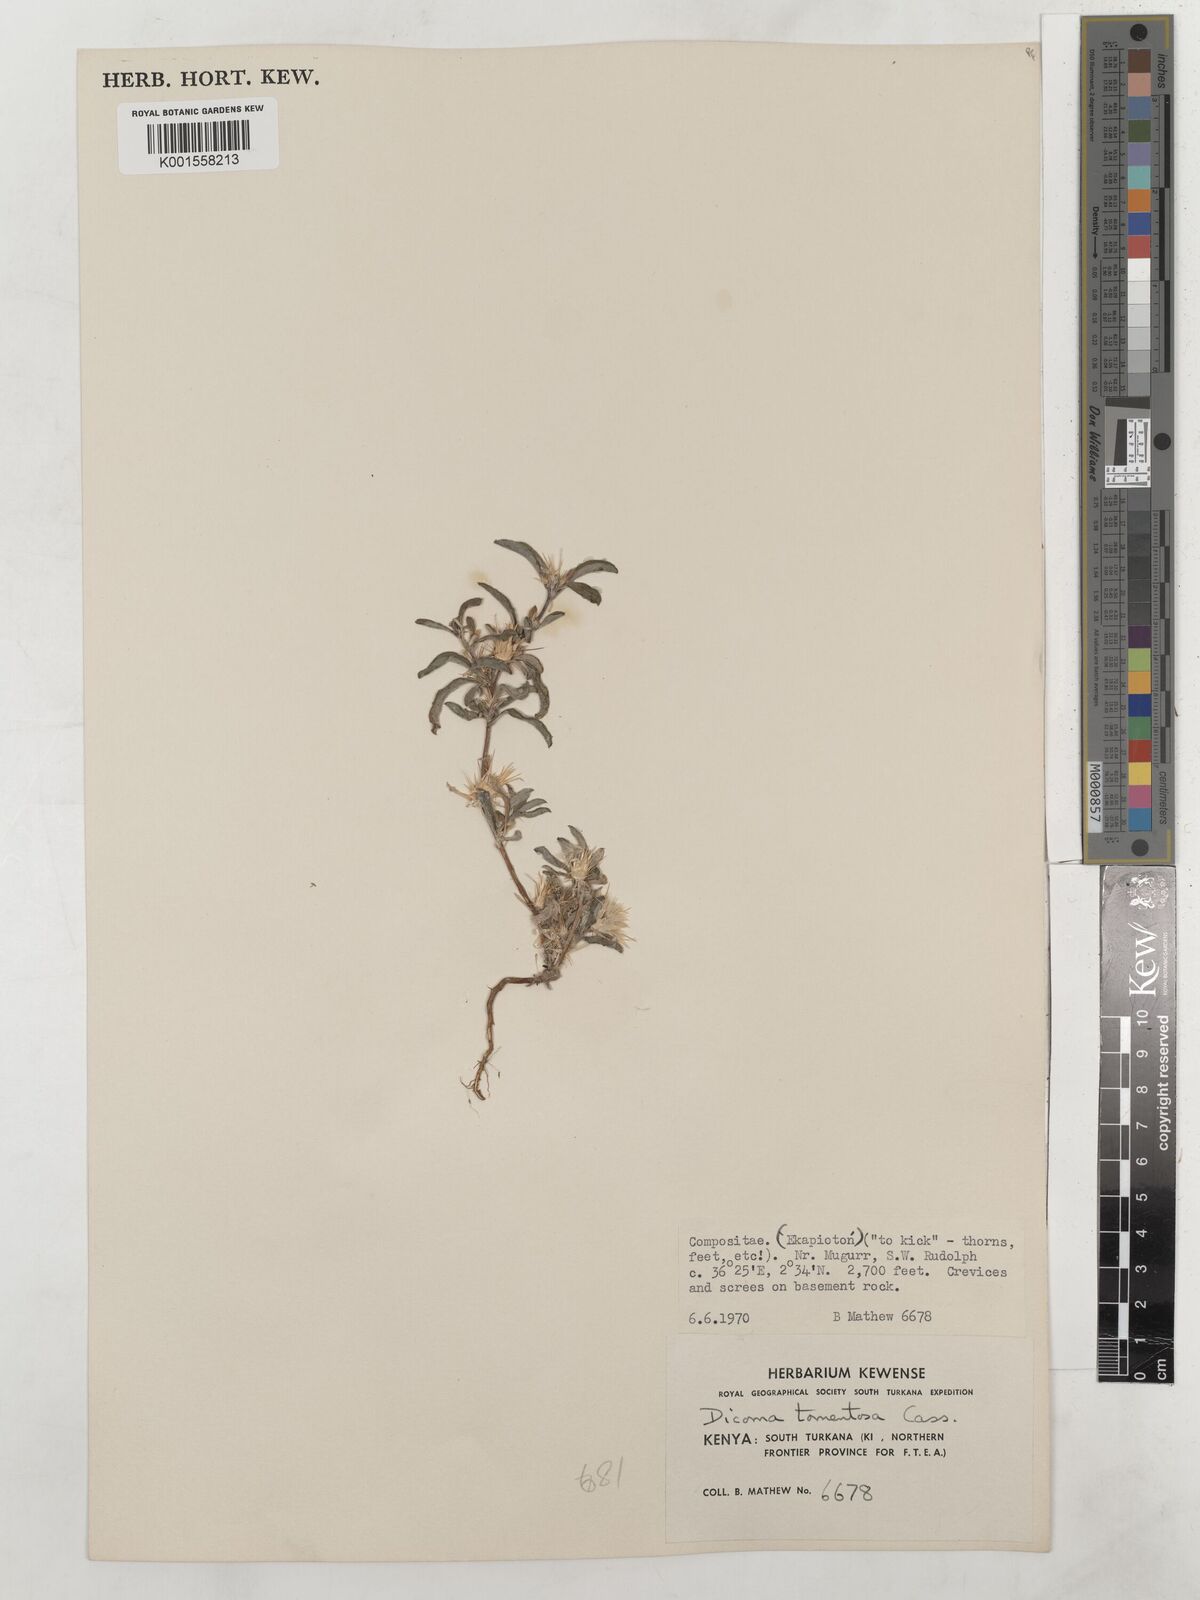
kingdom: Plantae
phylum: Tracheophyta
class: Magnoliopsida
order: Asterales
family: Asteraceae
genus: Dicoma
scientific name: Dicoma tomentosa
